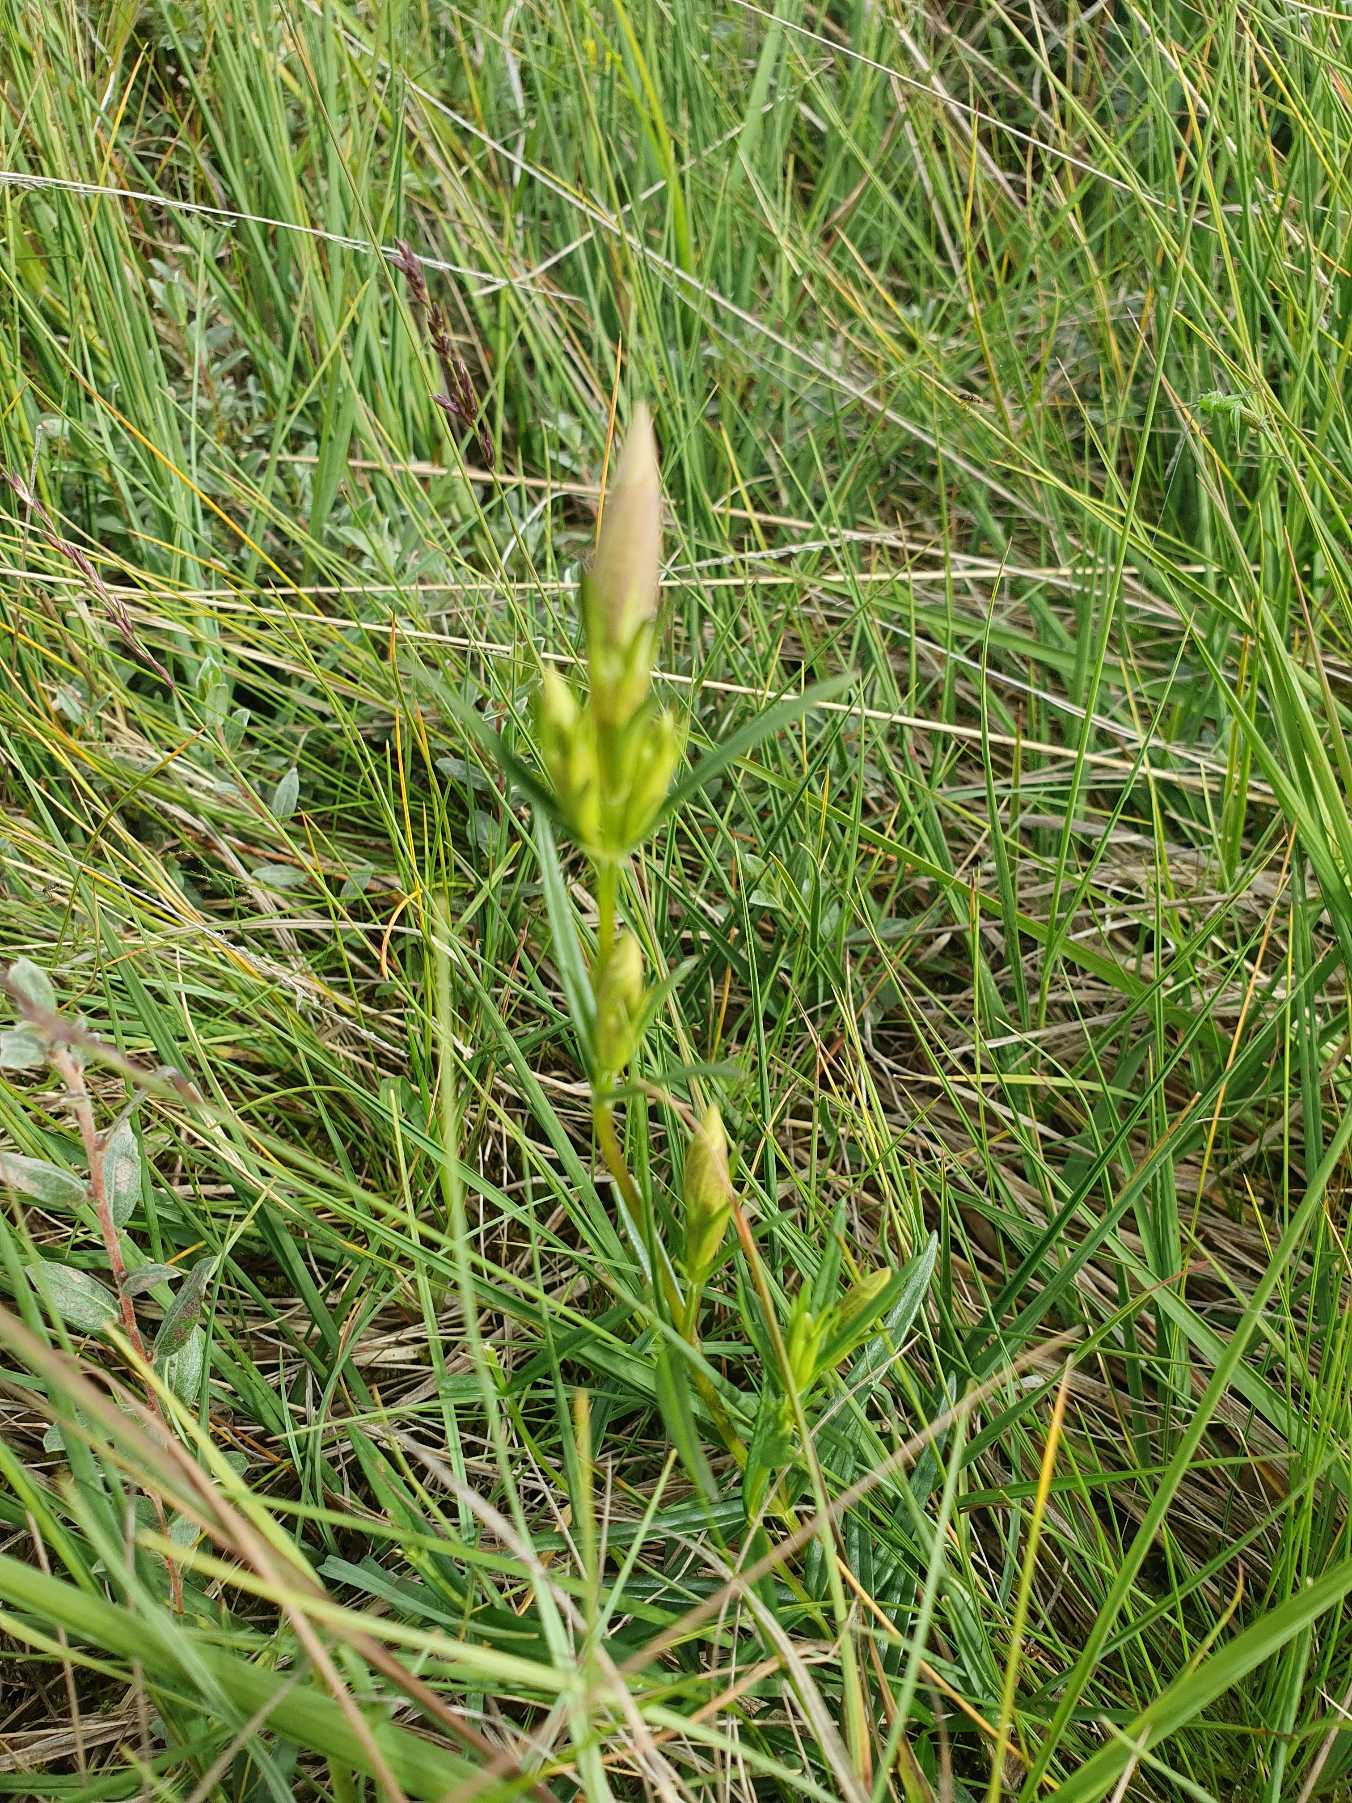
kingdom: Plantae
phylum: Tracheophyta
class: Magnoliopsida
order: Gentianales
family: Gentianaceae
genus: Gentiana
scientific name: Gentiana pneumonanthe
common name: Klokke-ensian
